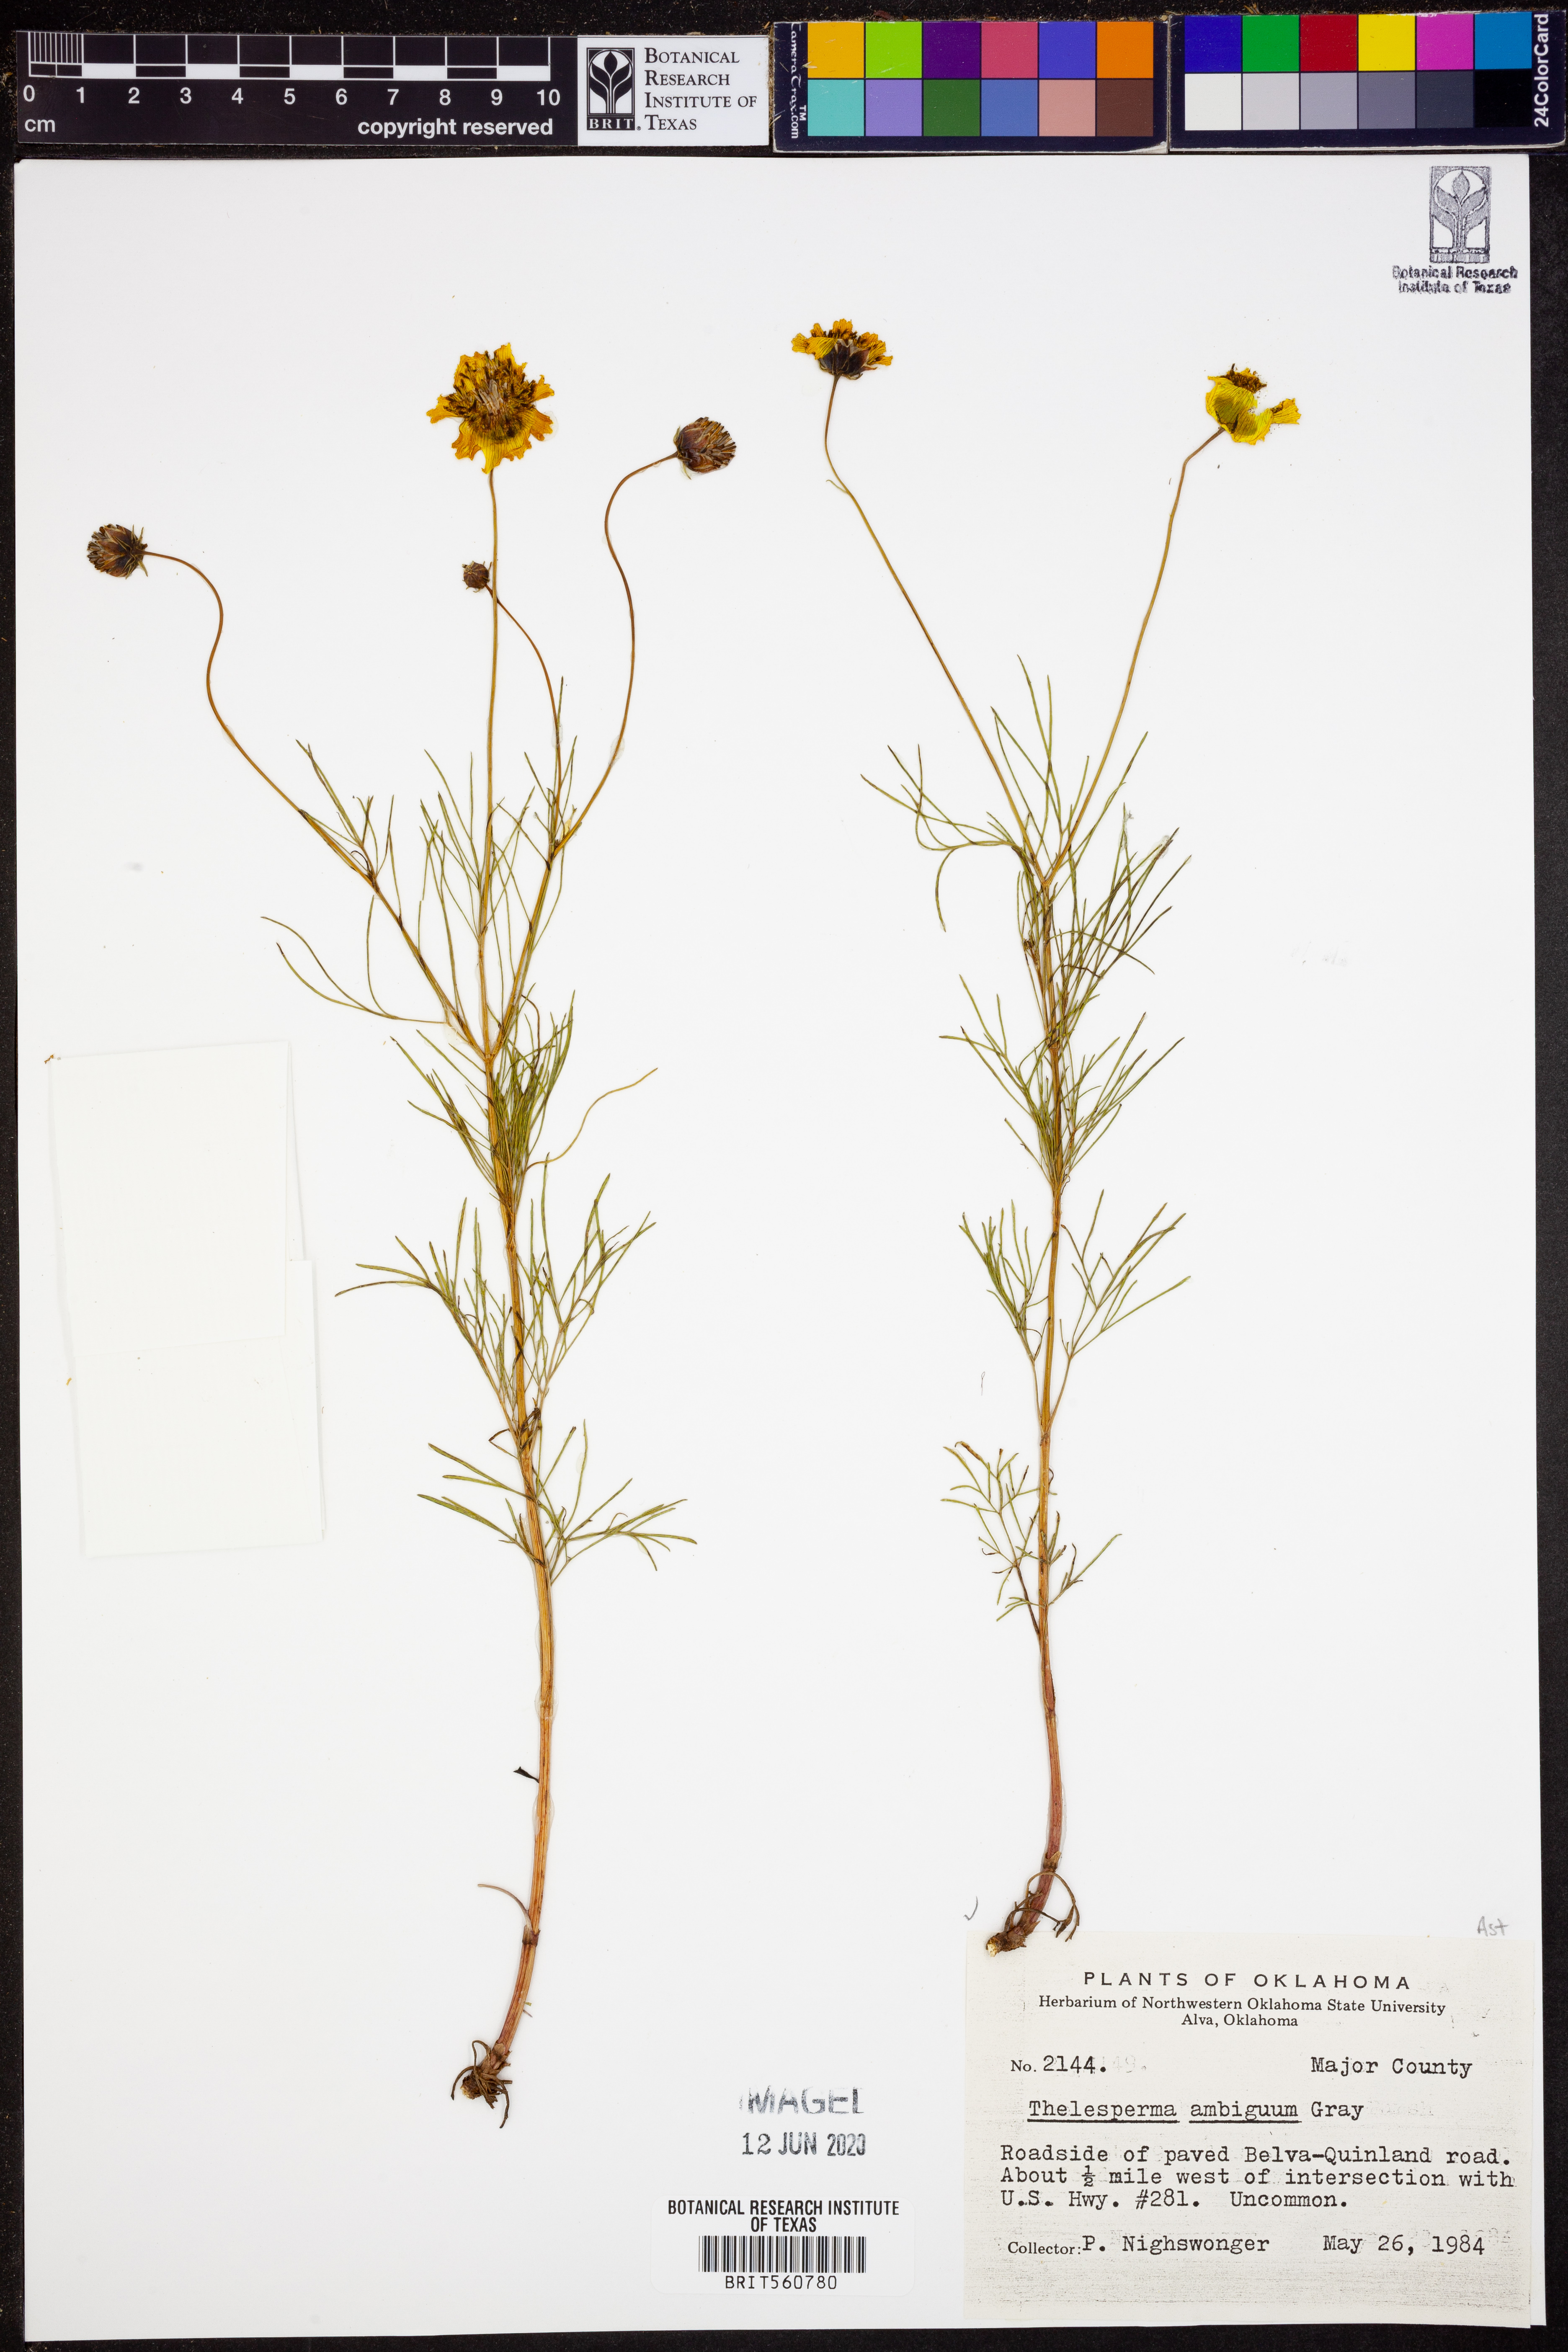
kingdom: Plantae
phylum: Tracheophyta
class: Magnoliopsida
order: Asterales
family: Asteraceae
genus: Thelesperma
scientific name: Thelesperma ambiguum
